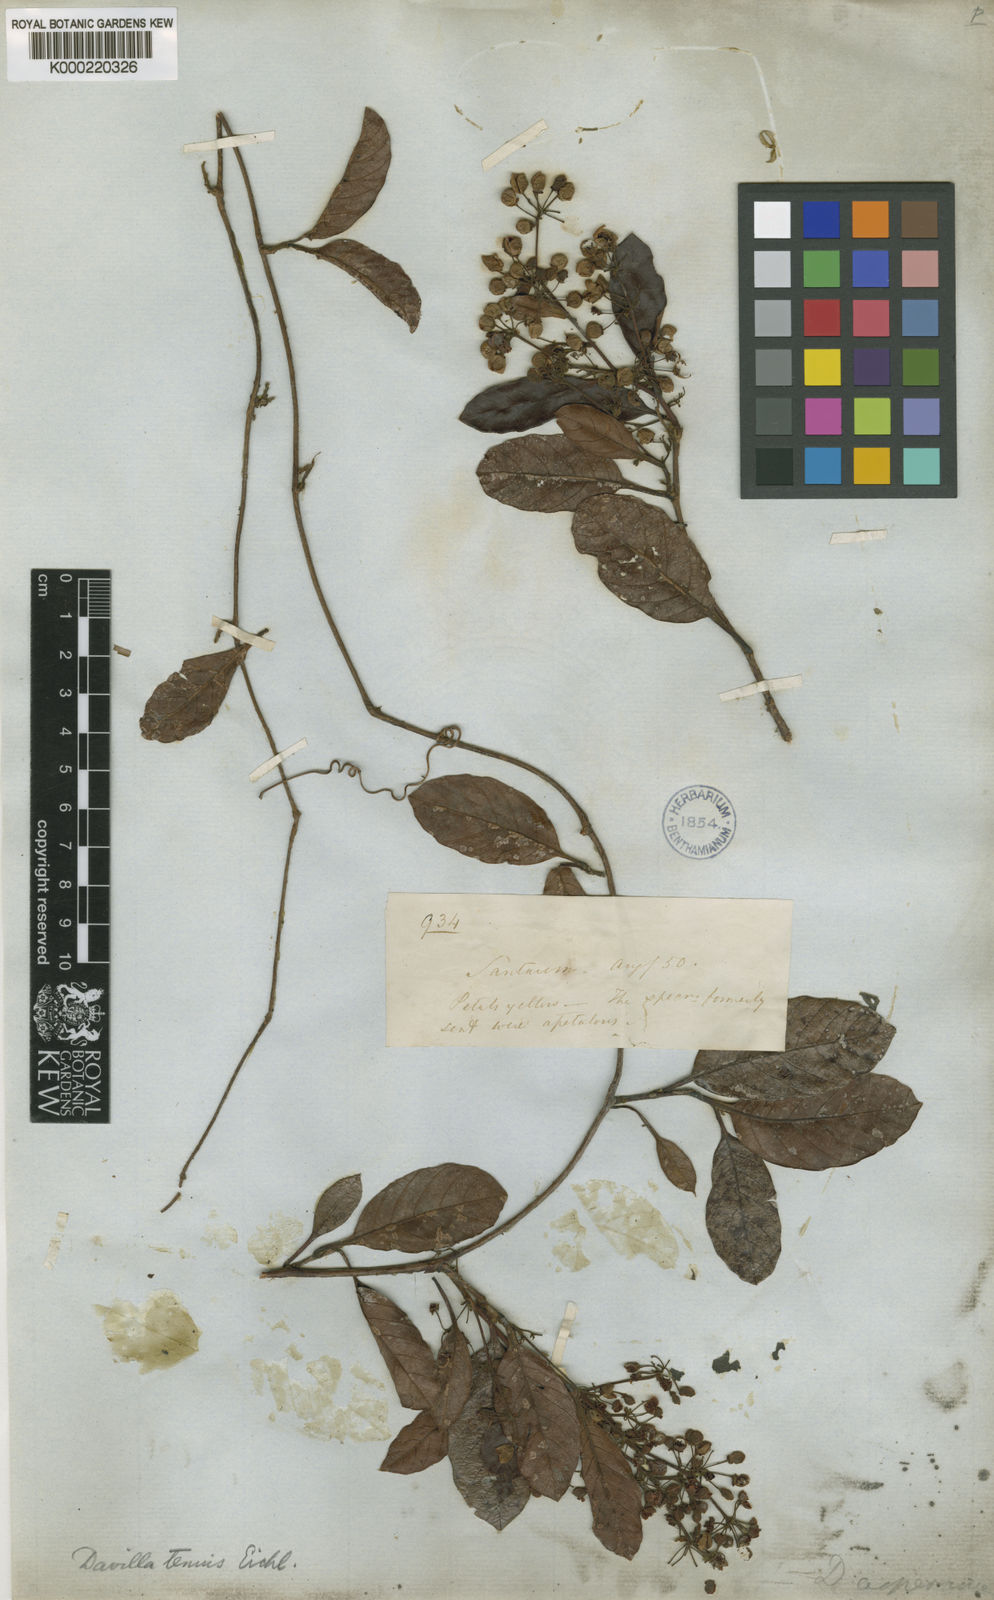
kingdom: Plantae
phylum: Tracheophyta
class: Magnoliopsida
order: Dilleniales
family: Dilleniaceae
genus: Davilla
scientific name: Davilla kunthii
